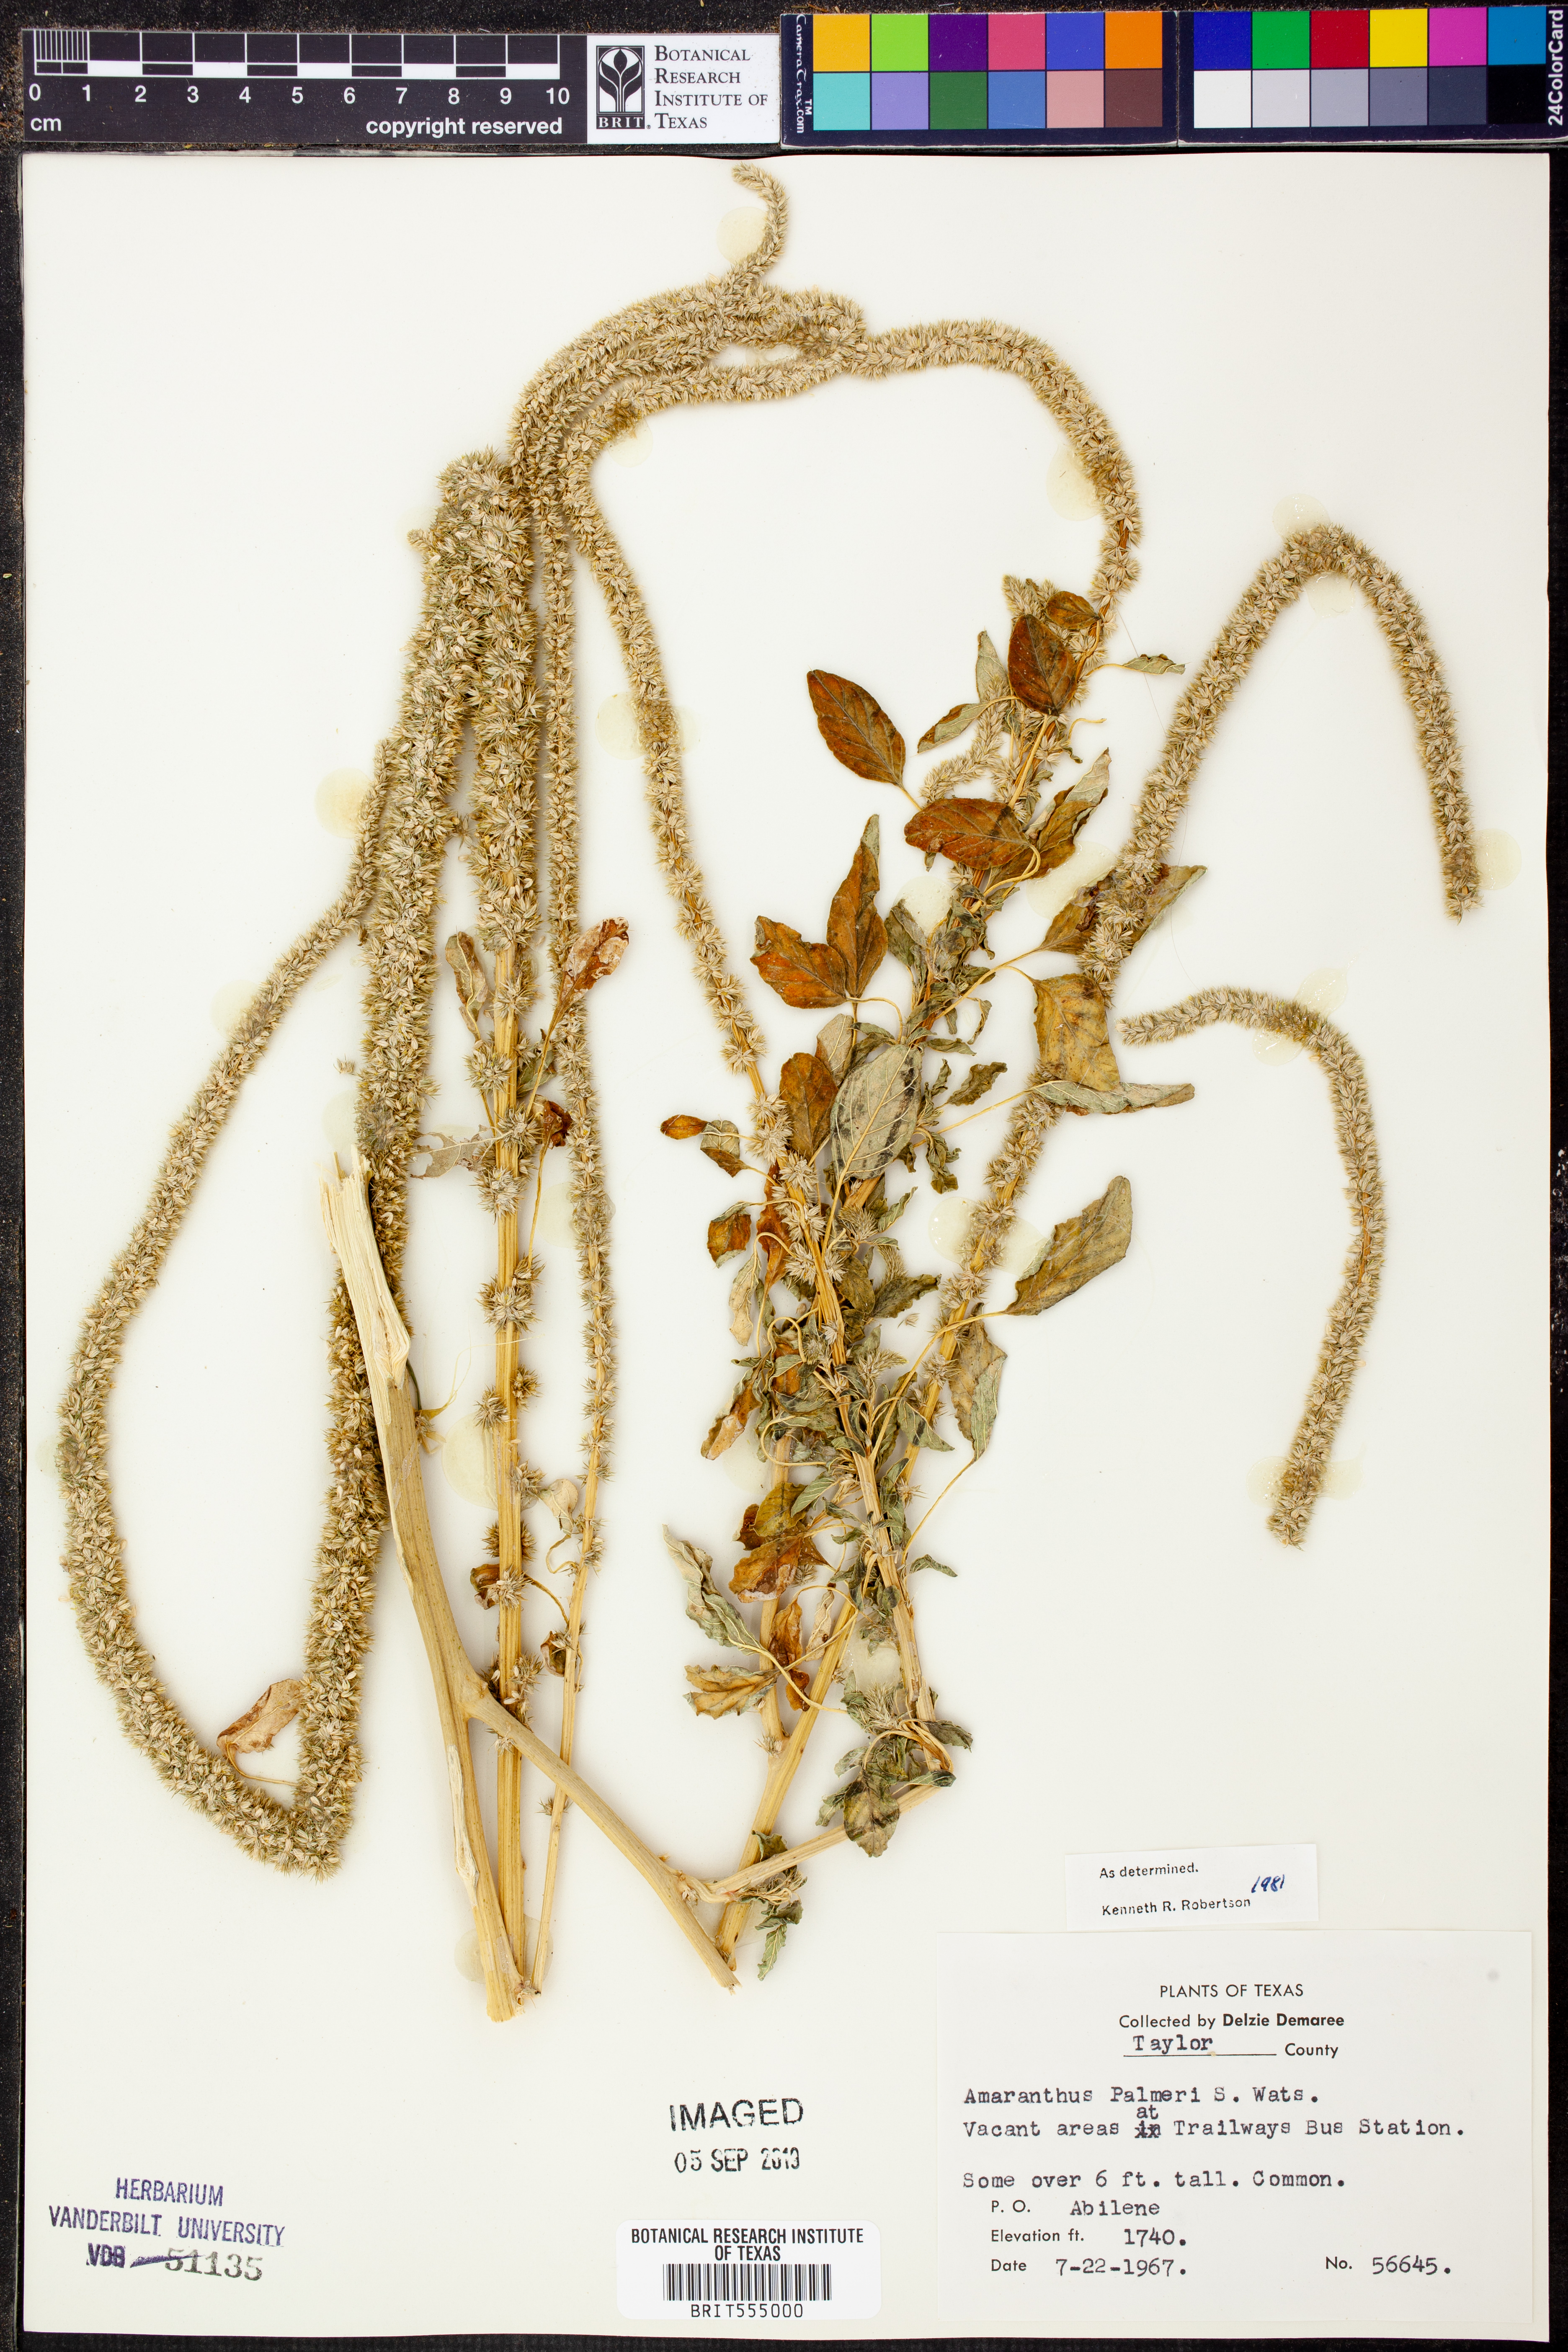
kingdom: Plantae
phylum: Tracheophyta
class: Magnoliopsida
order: Caryophyllales
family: Amaranthaceae
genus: Amaranthus
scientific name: Amaranthus palmeri
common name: Dioecious amaranth
